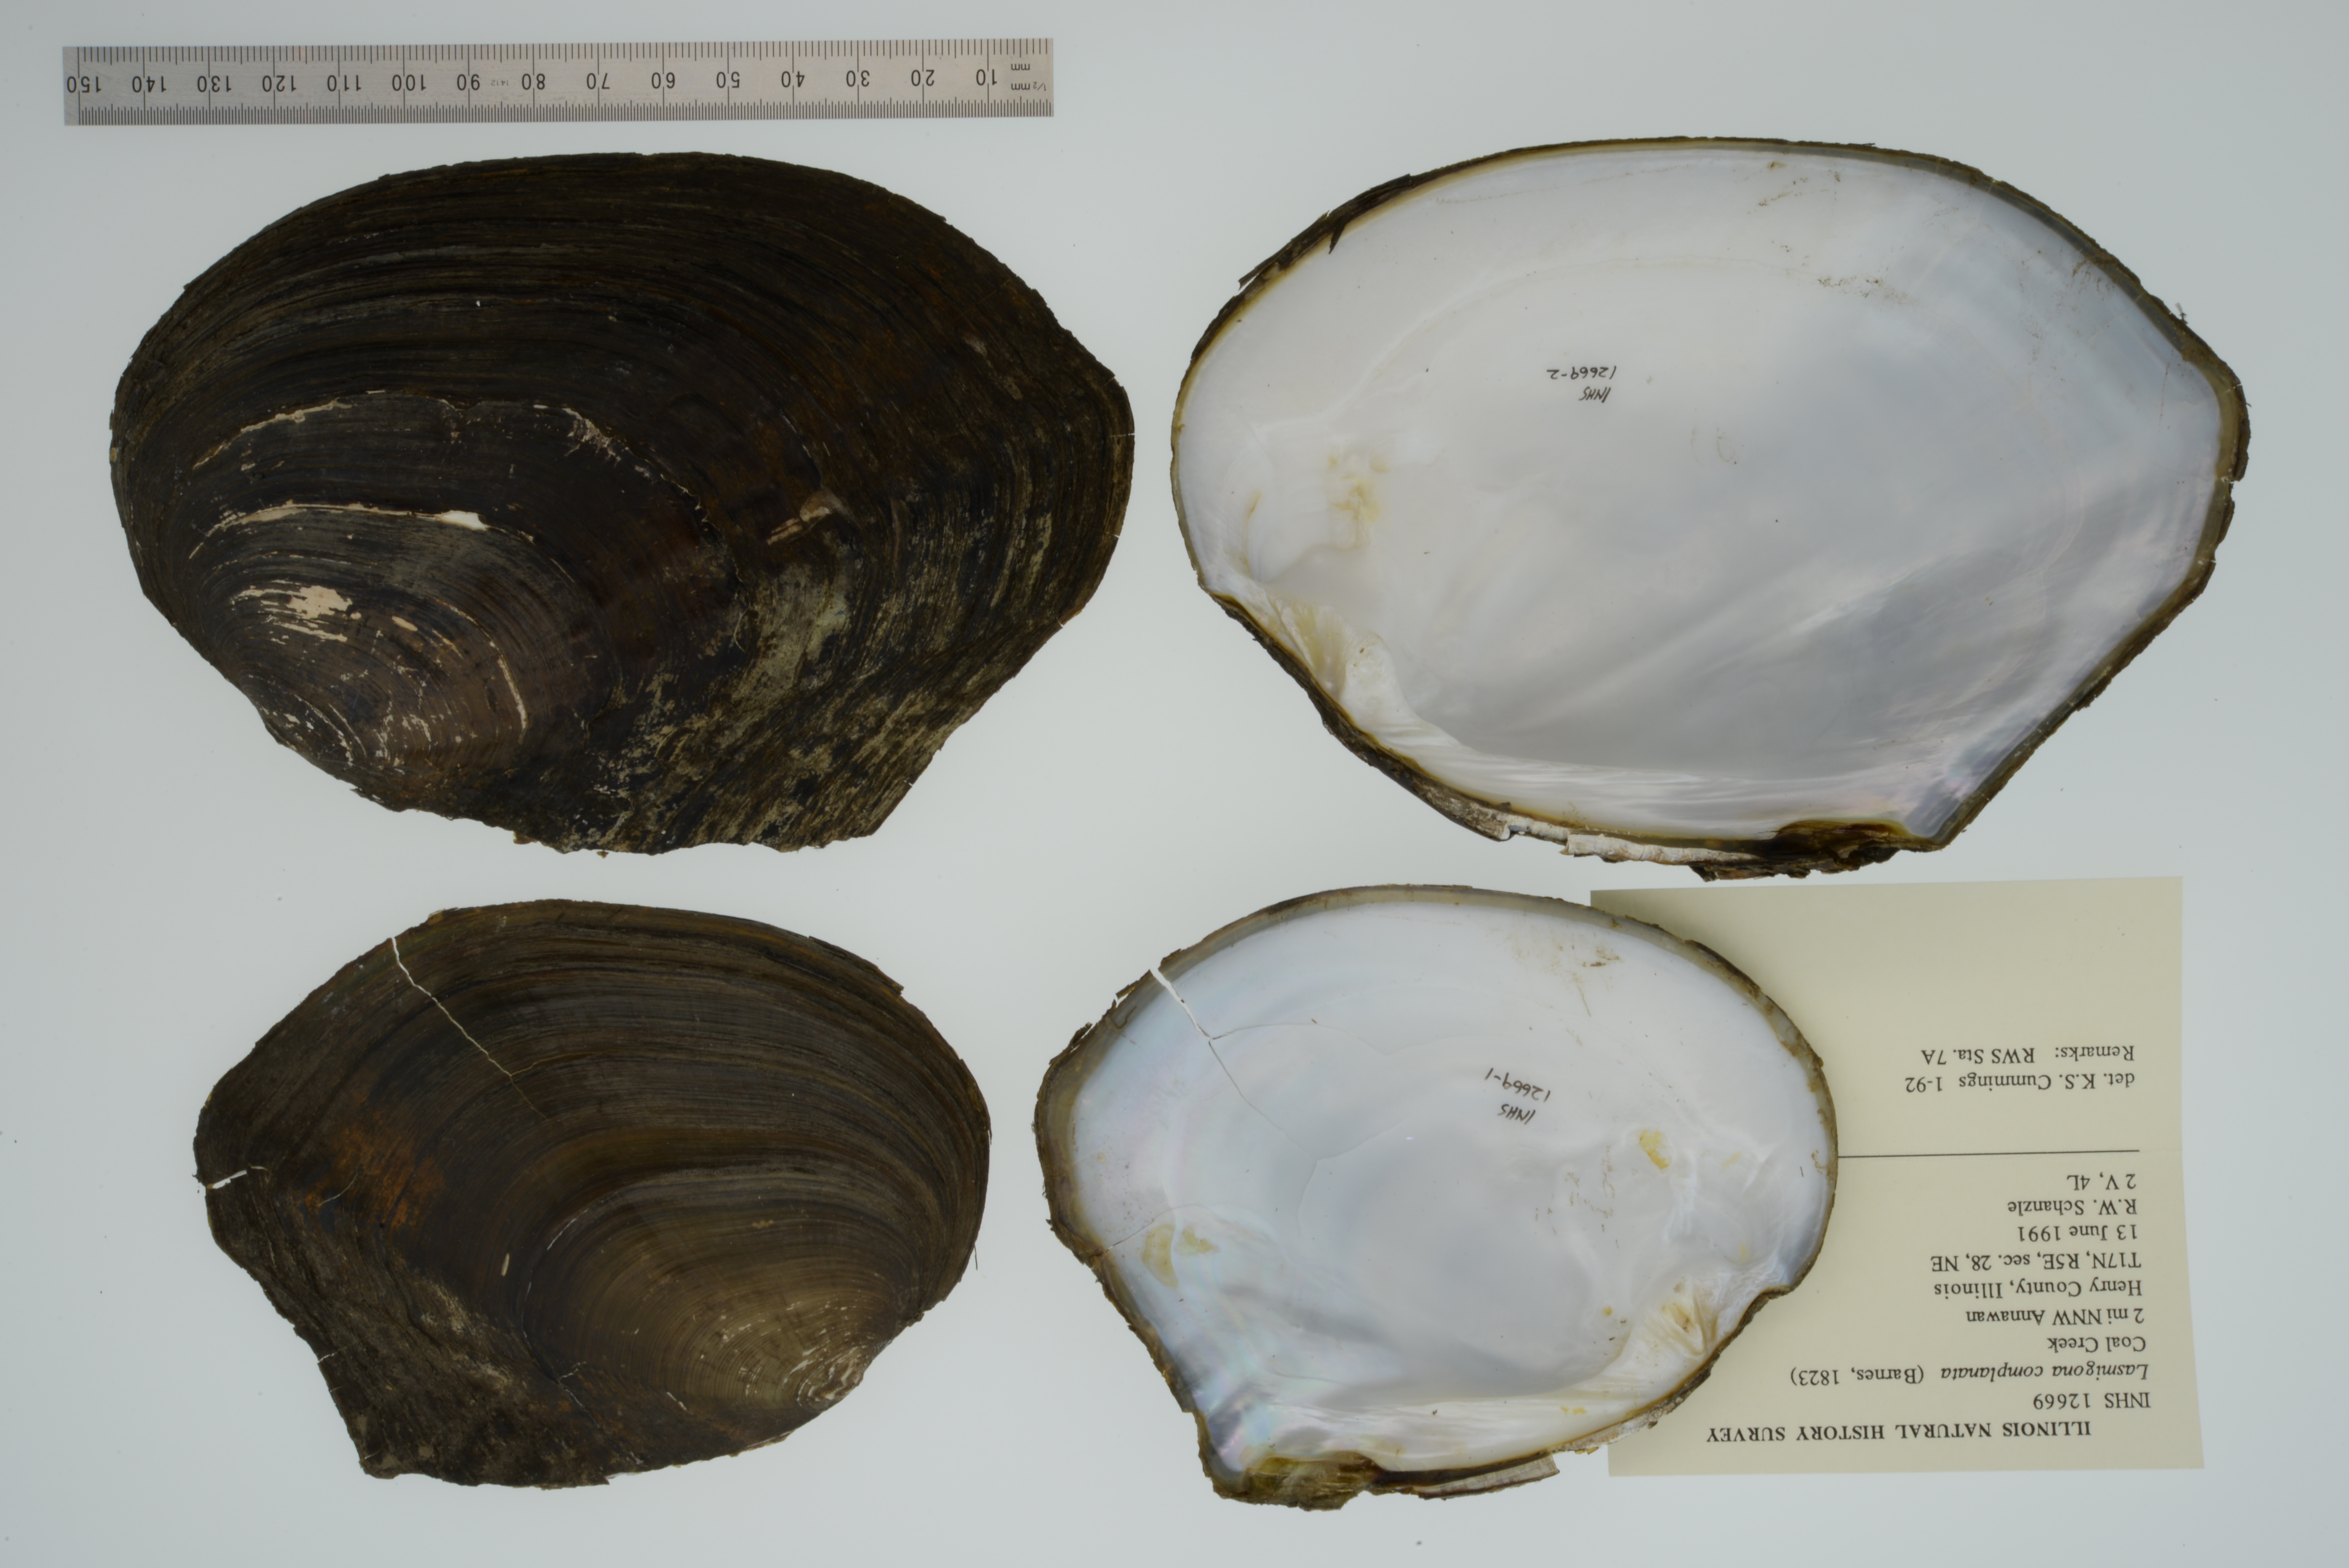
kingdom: Animalia
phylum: Mollusca
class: Bivalvia
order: Unionida
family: Unionidae
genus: Lasmigona
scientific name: Lasmigona complanata
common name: White heelsplitter
